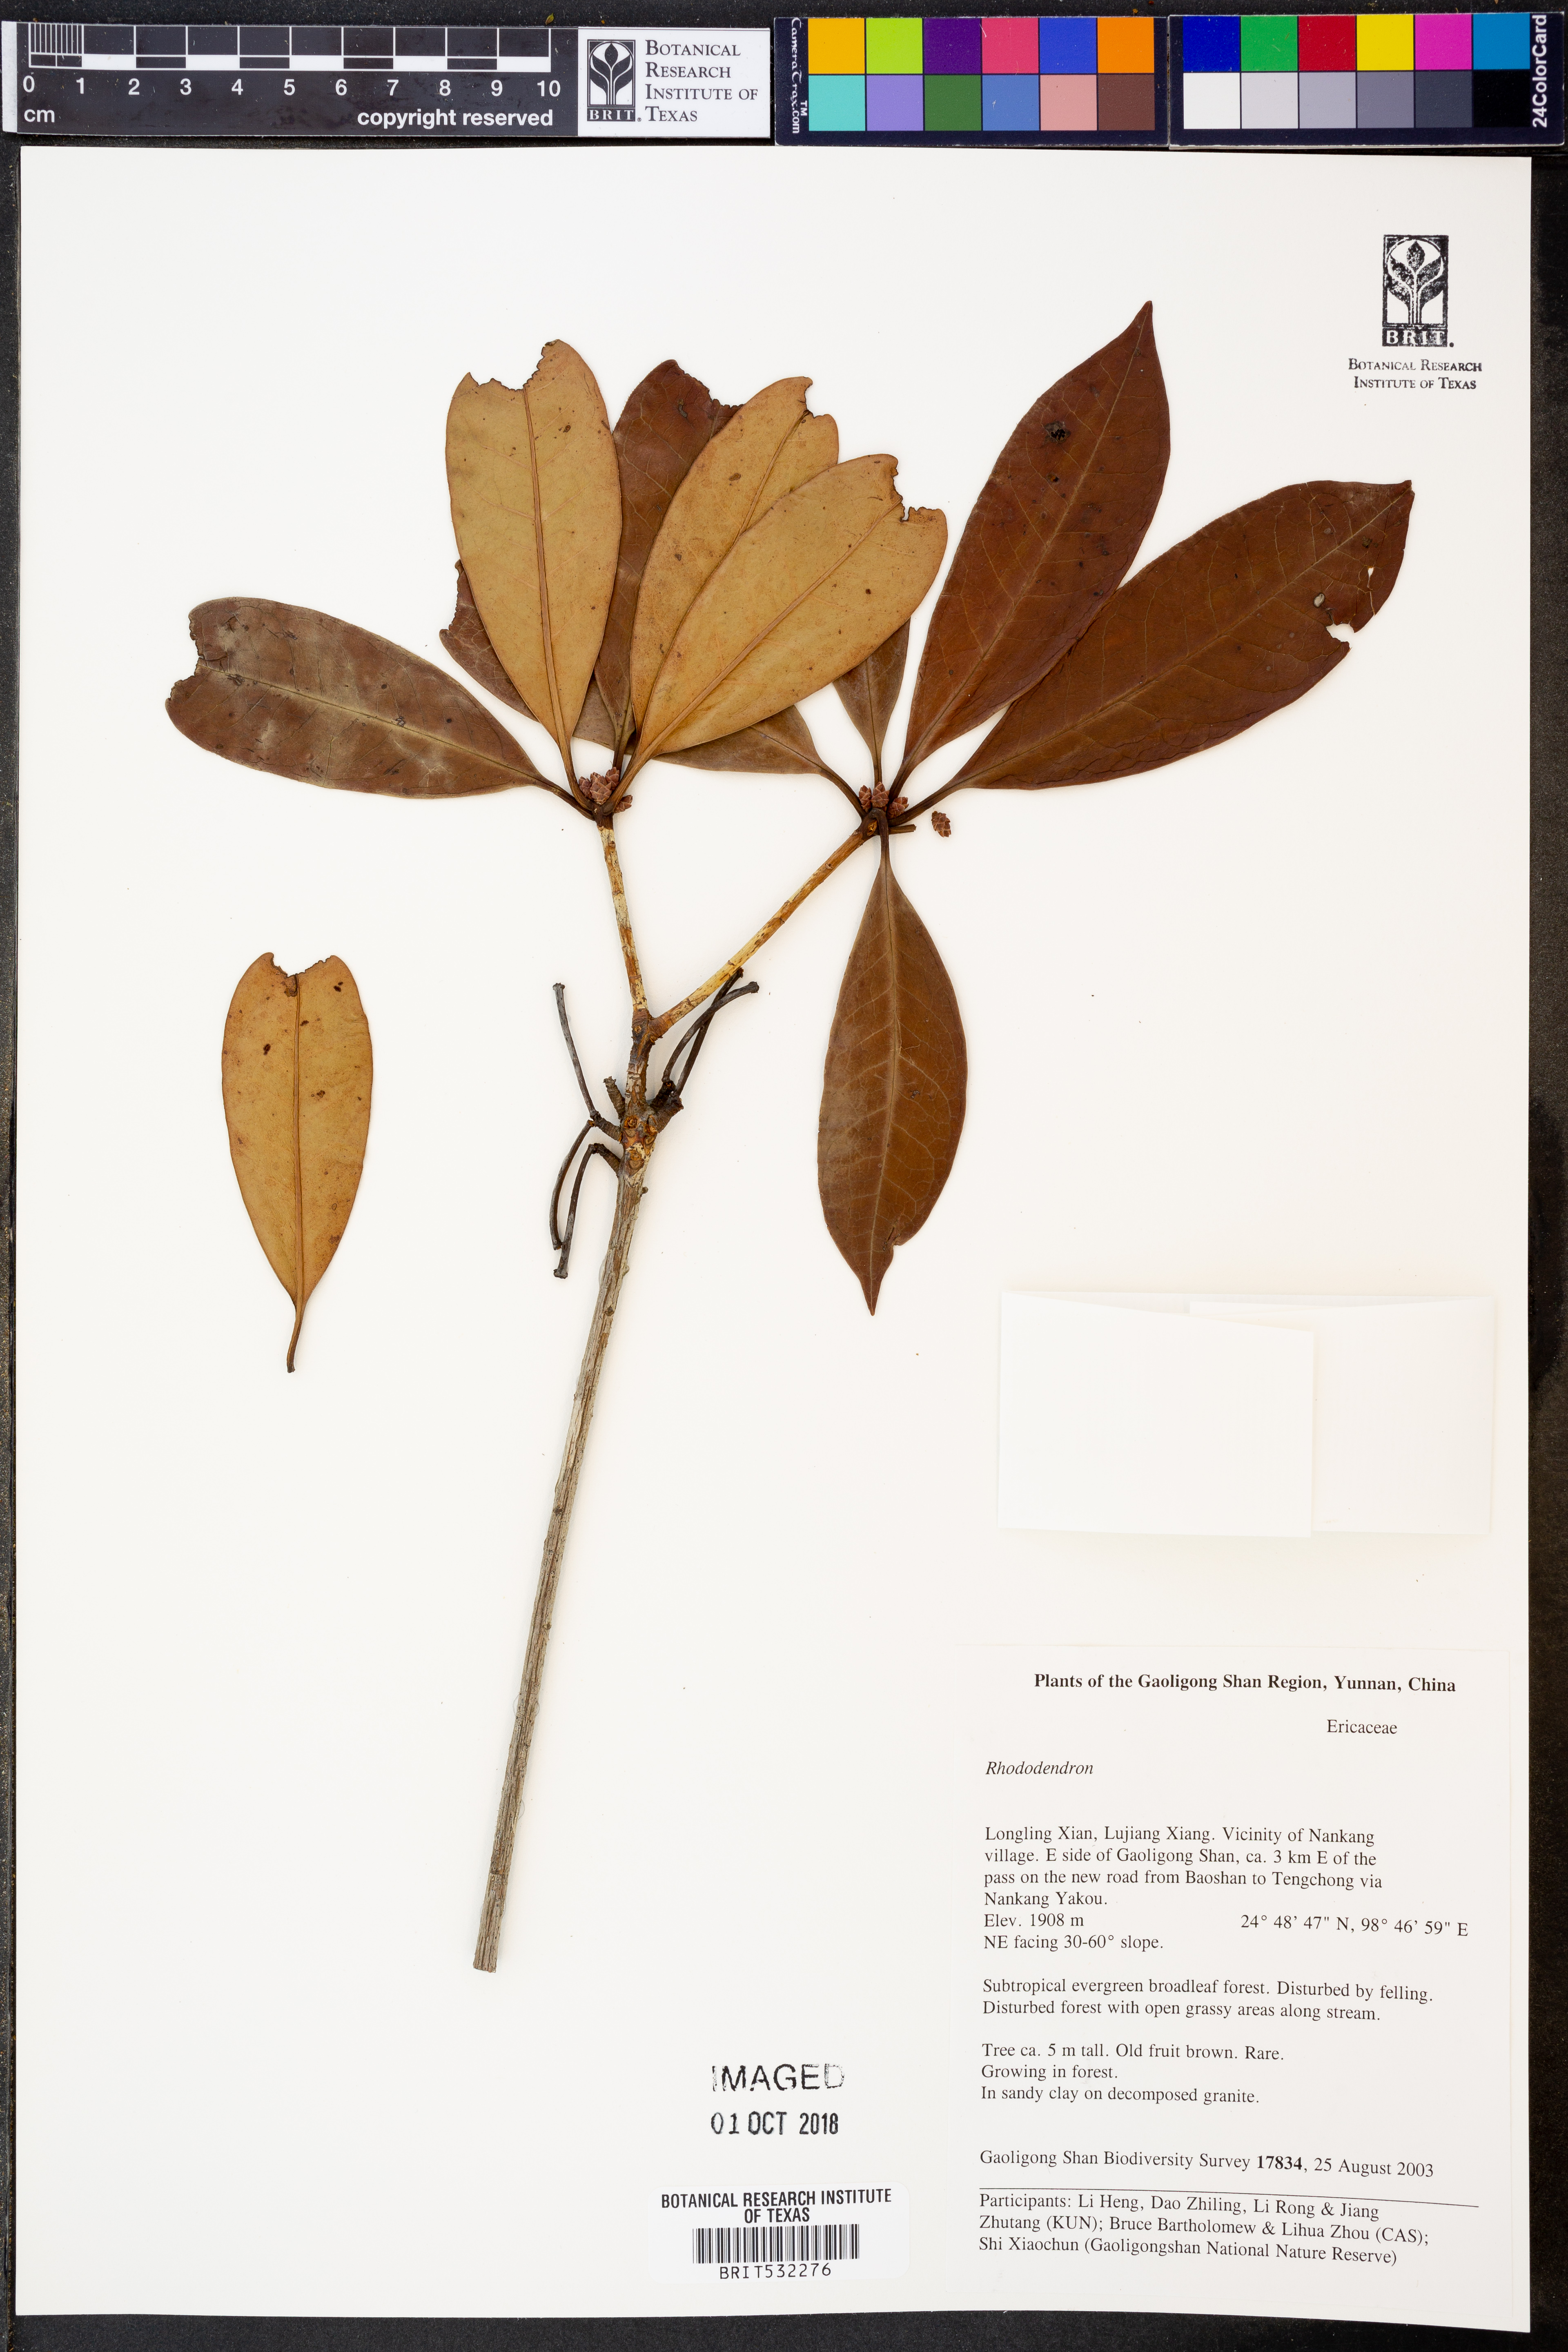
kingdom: Plantae
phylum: Tracheophyta
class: Magnoliopsida
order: Ericales
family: Ericaceae
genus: Rhododendron
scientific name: Rhododendron
